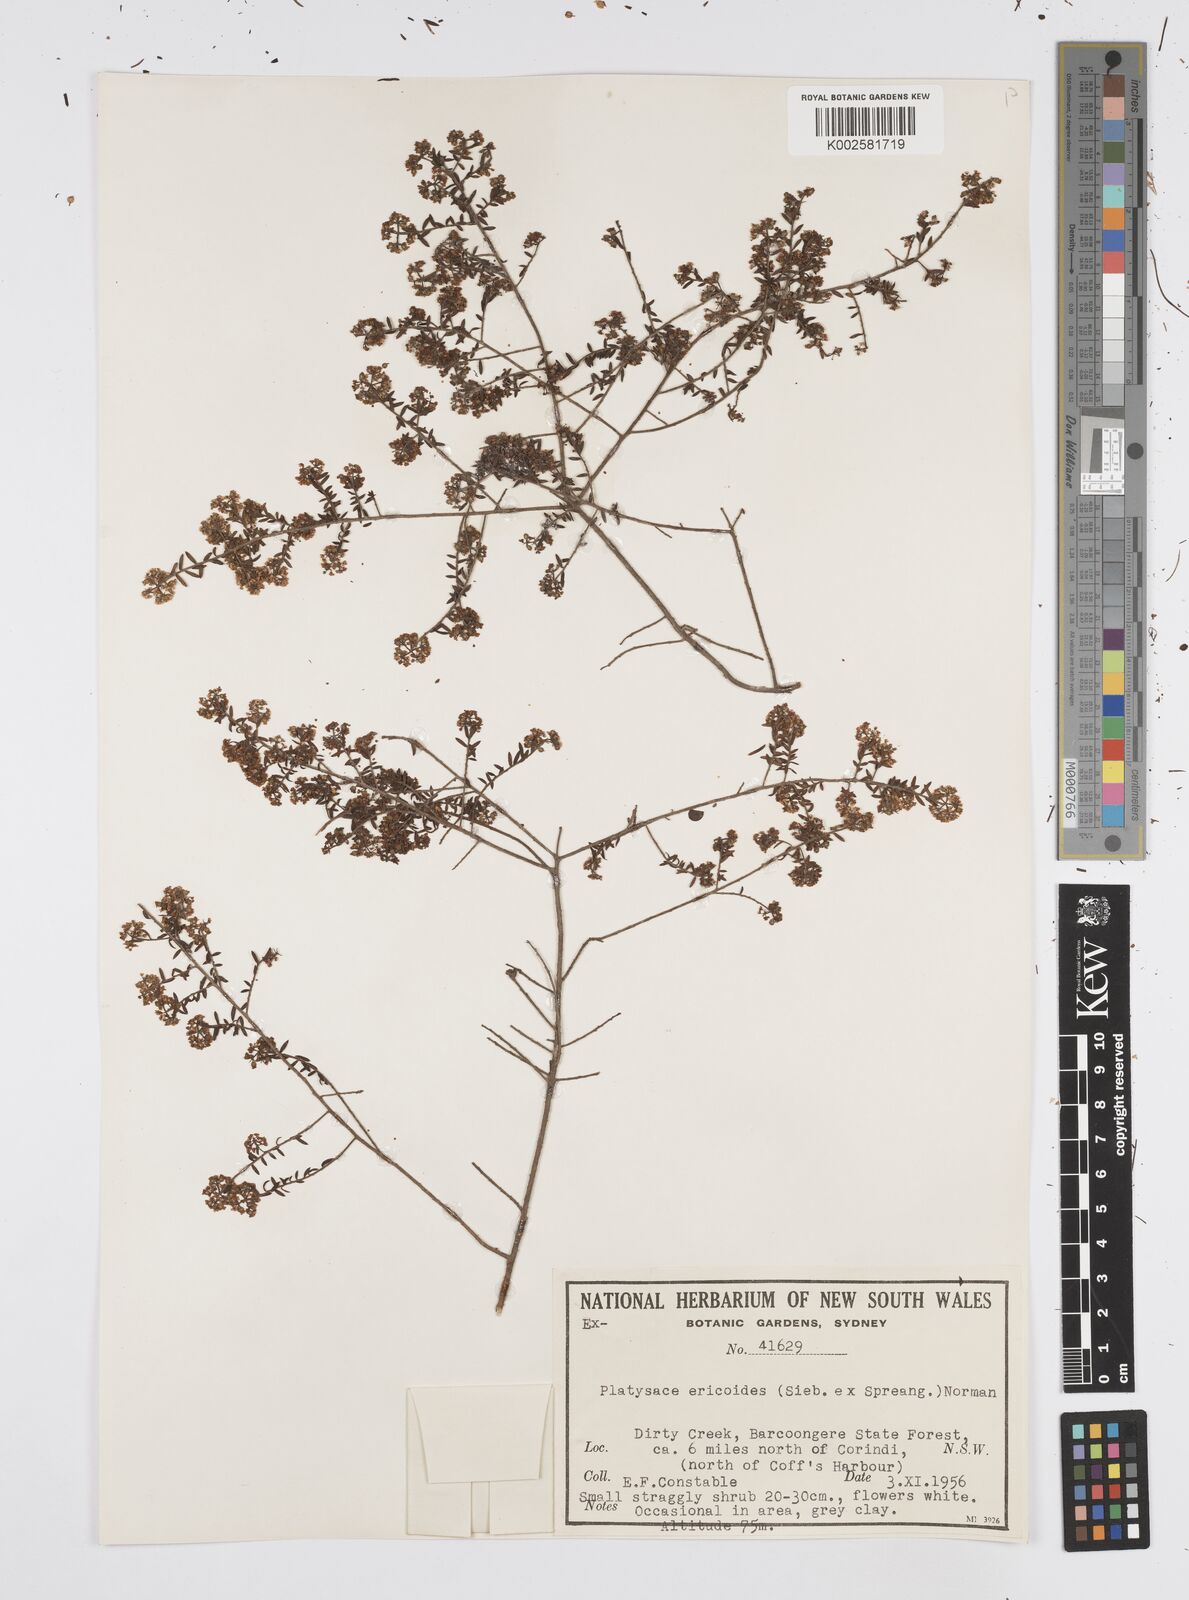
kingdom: Plantae
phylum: Tracheophyta
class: Magnoliopsida
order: Apiales
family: Apiaceae
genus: Platysace
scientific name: Platysace ericoides
